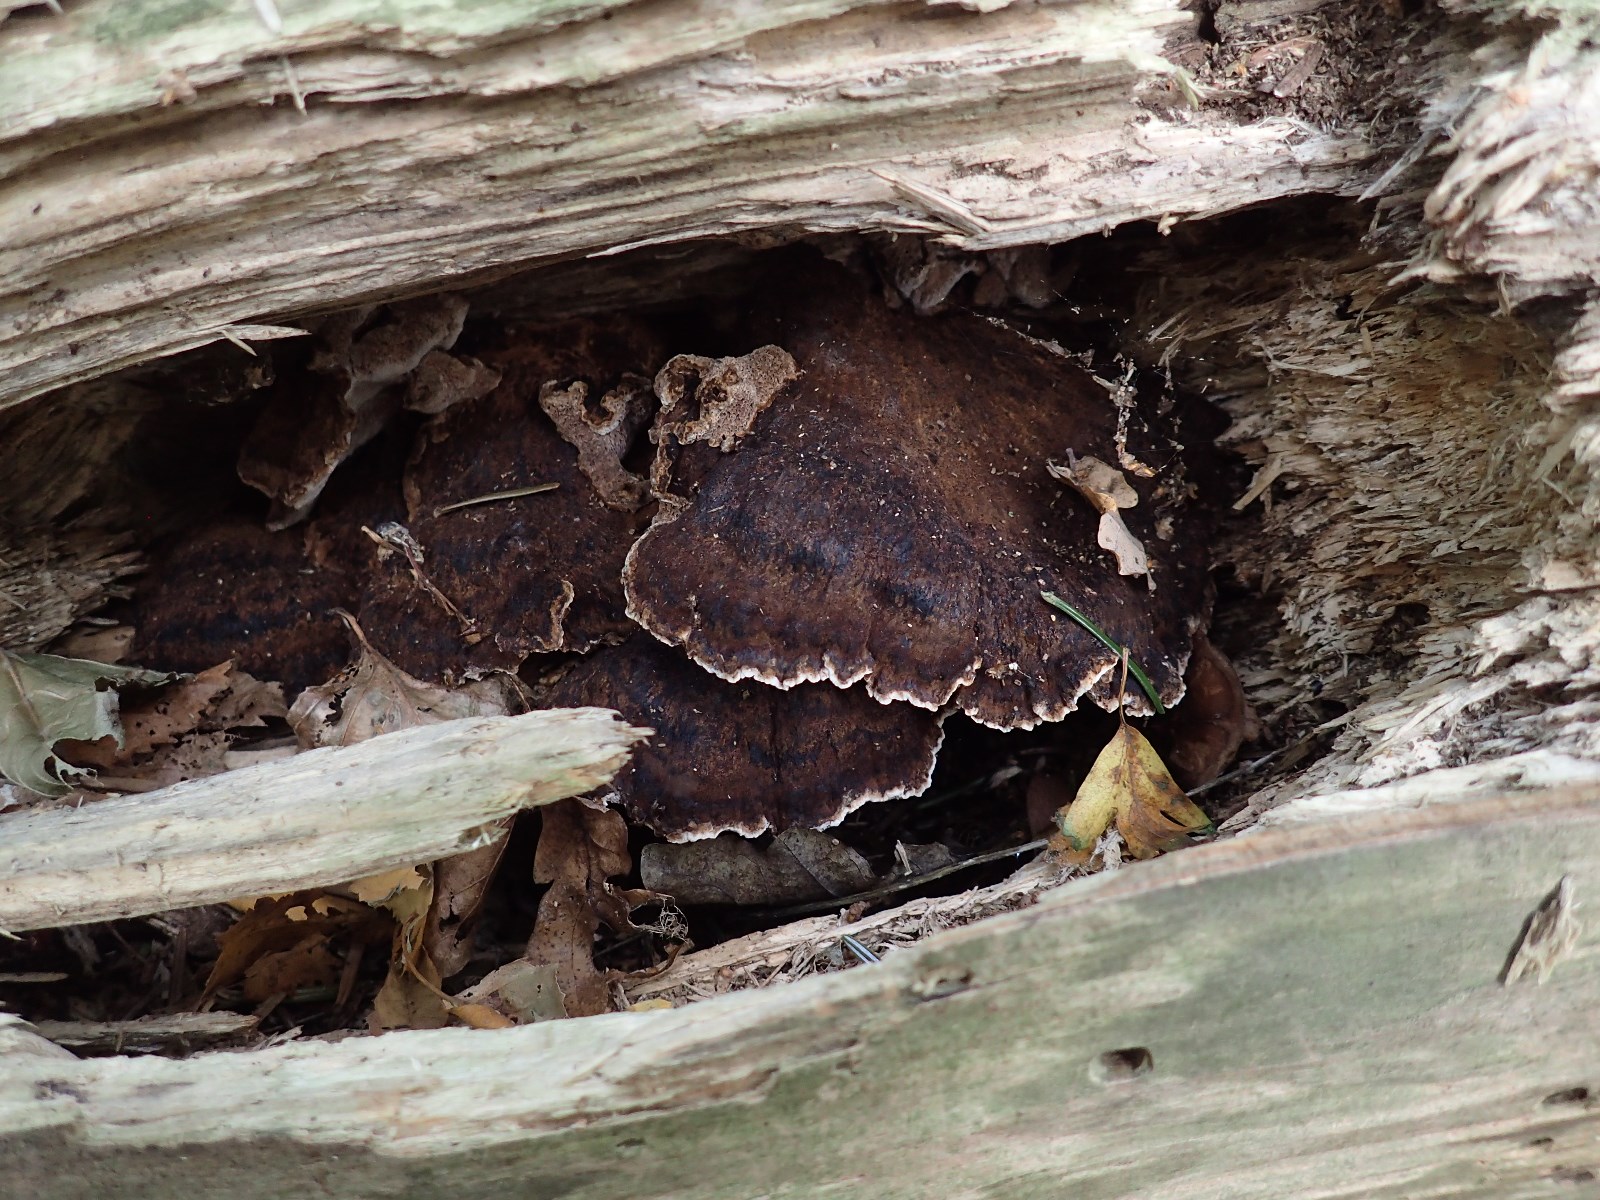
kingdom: Fungi
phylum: Basidiomycota
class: Agaricomycetes
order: Polyporales
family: Ischnodermataceae
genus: Ischnoderma
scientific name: Ischnoderma benzoinum
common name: gran-tjæreporesvamp
